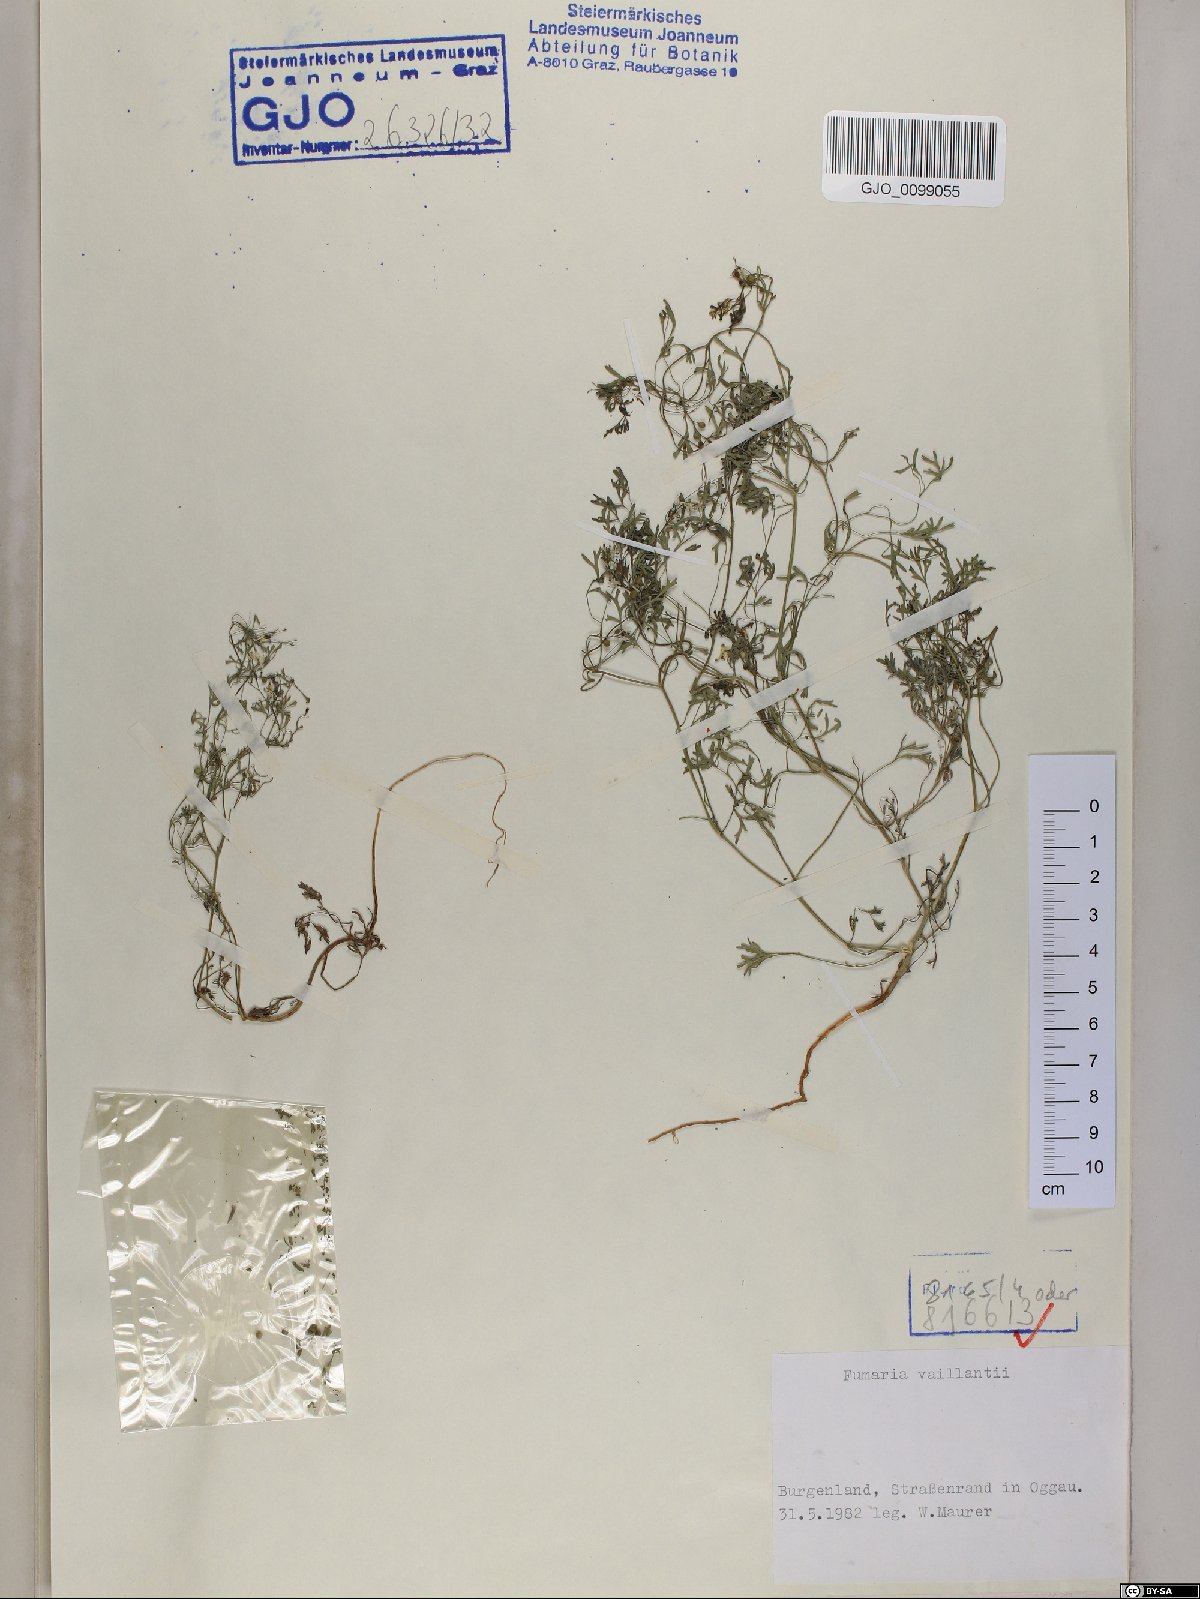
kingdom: Plantae
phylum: Tracheophyta
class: Magnoliopsida
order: Ranunculales
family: Papaveraceae
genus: Fumaria
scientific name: Fumaria vaillantii
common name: Few-flowered fumitory
